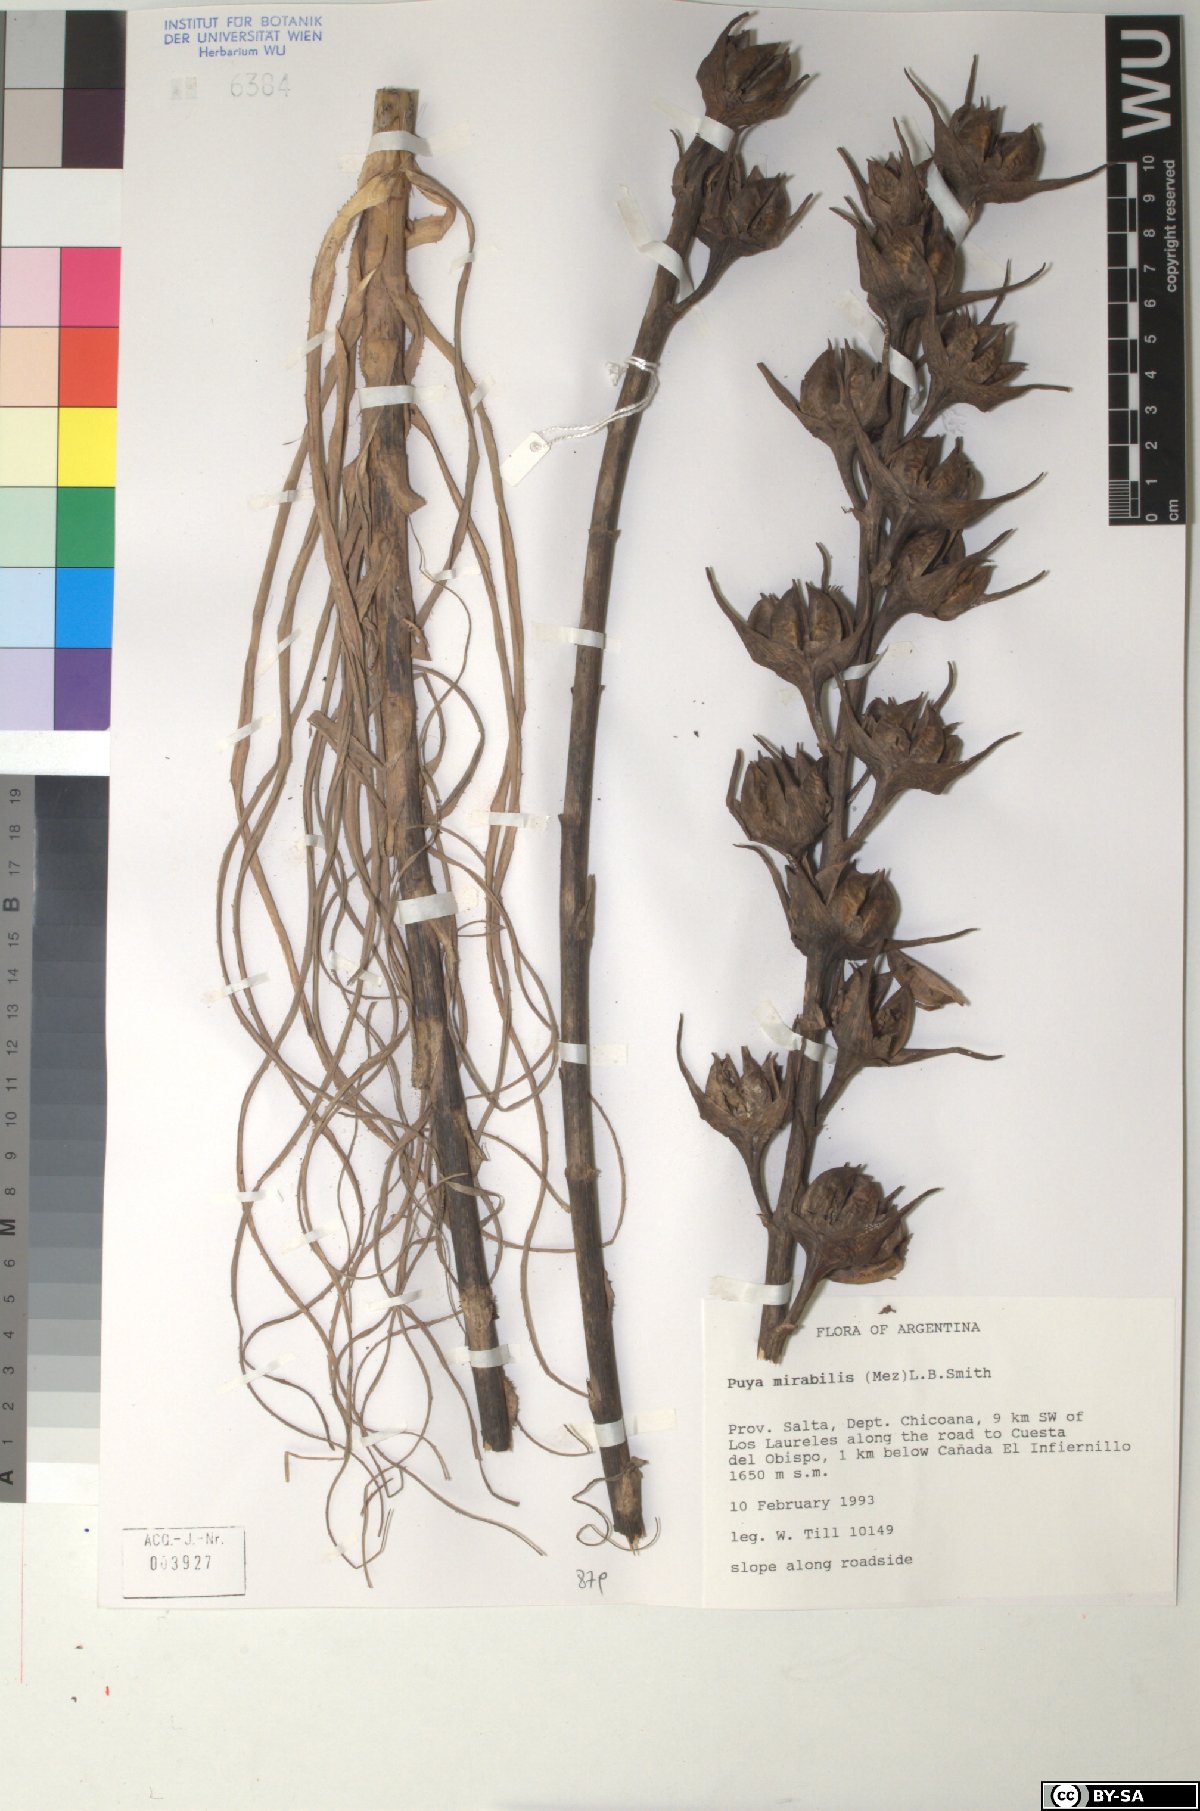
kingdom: Plantae
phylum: Tracheophyta
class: Liliopsida
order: Poales
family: Bromeliaceae
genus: Puya
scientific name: Puya mirabilis
